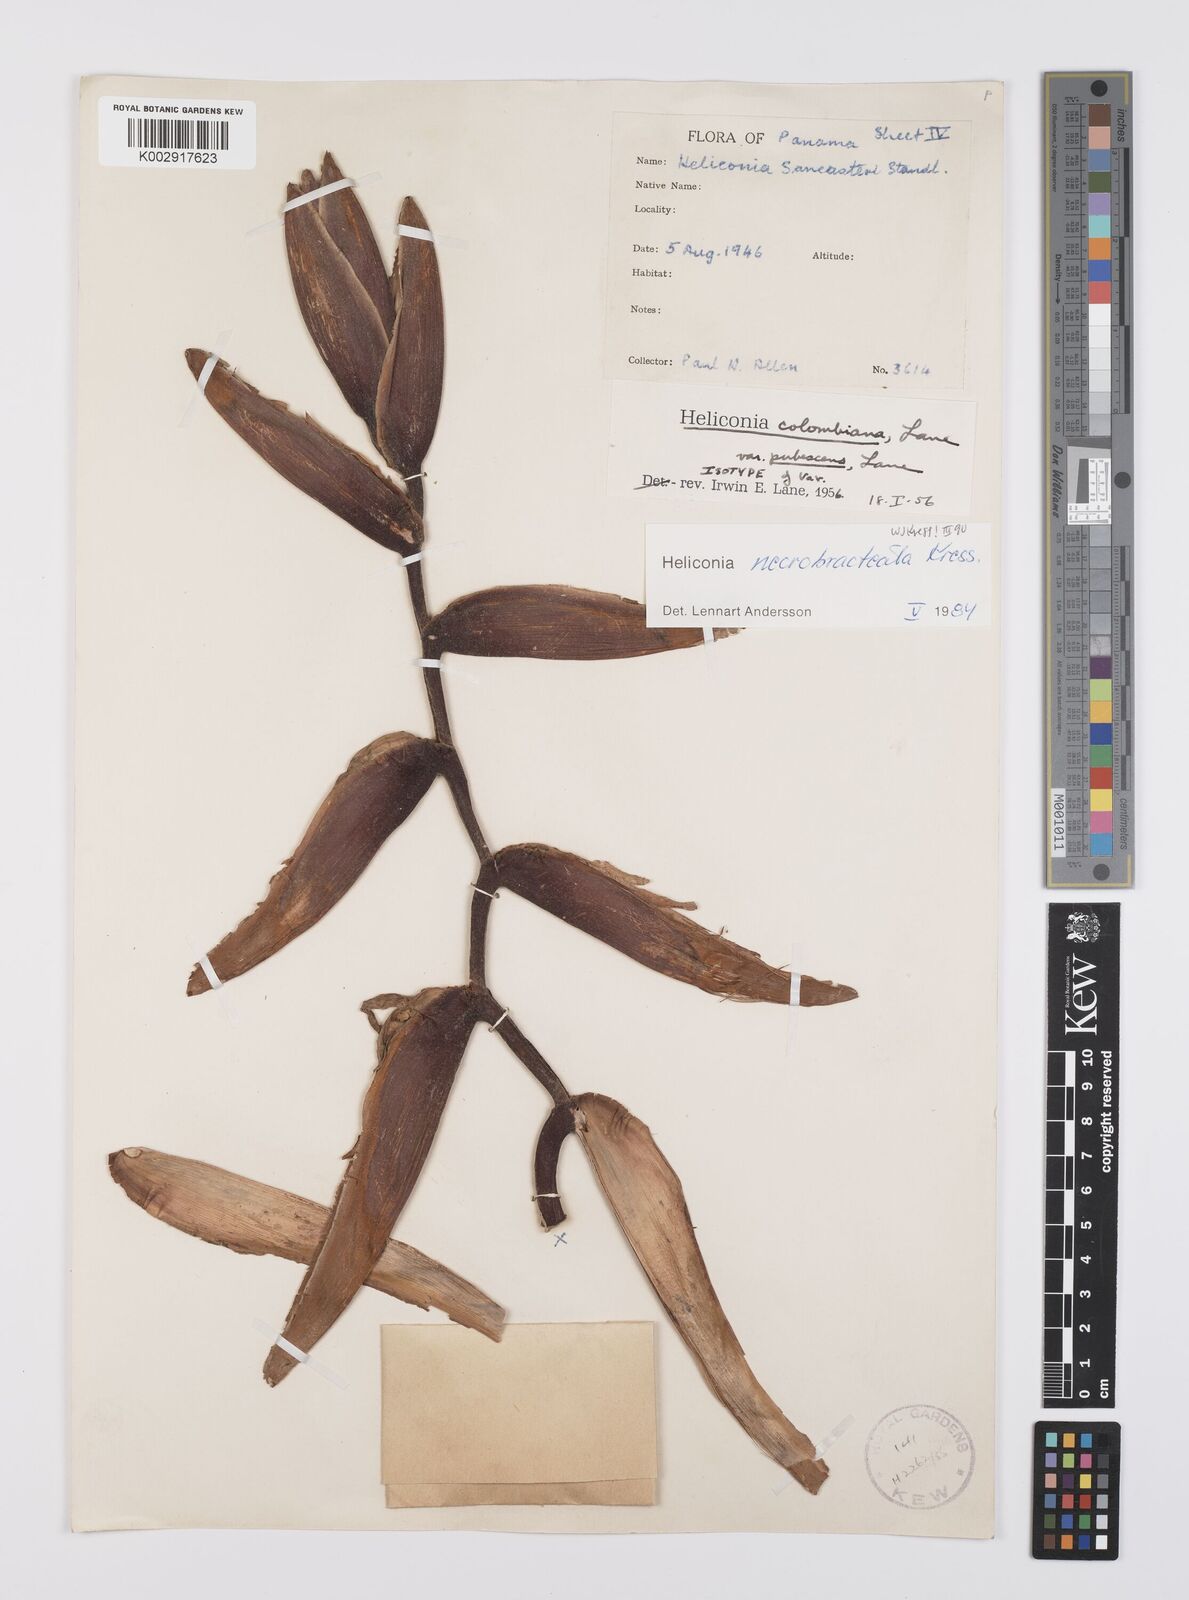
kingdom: Plantae
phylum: Tracheophyta
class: Liliopsida
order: Zingiberales
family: Heliconiaceae
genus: Heliconia
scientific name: Heliconia necrobracteata
